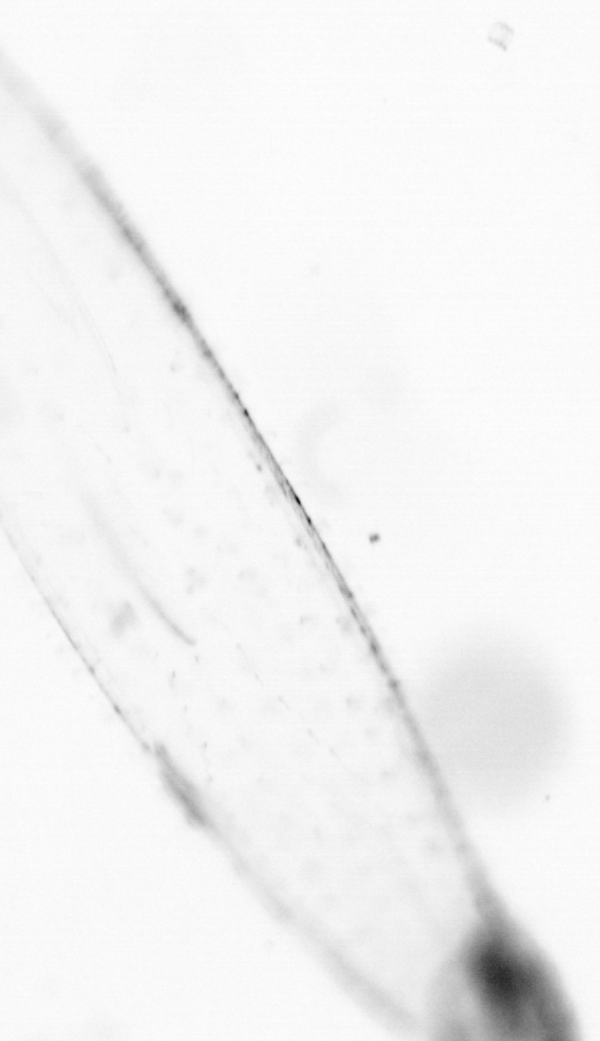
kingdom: Animalia
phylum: Chaetognatha
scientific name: Chaetognatha
